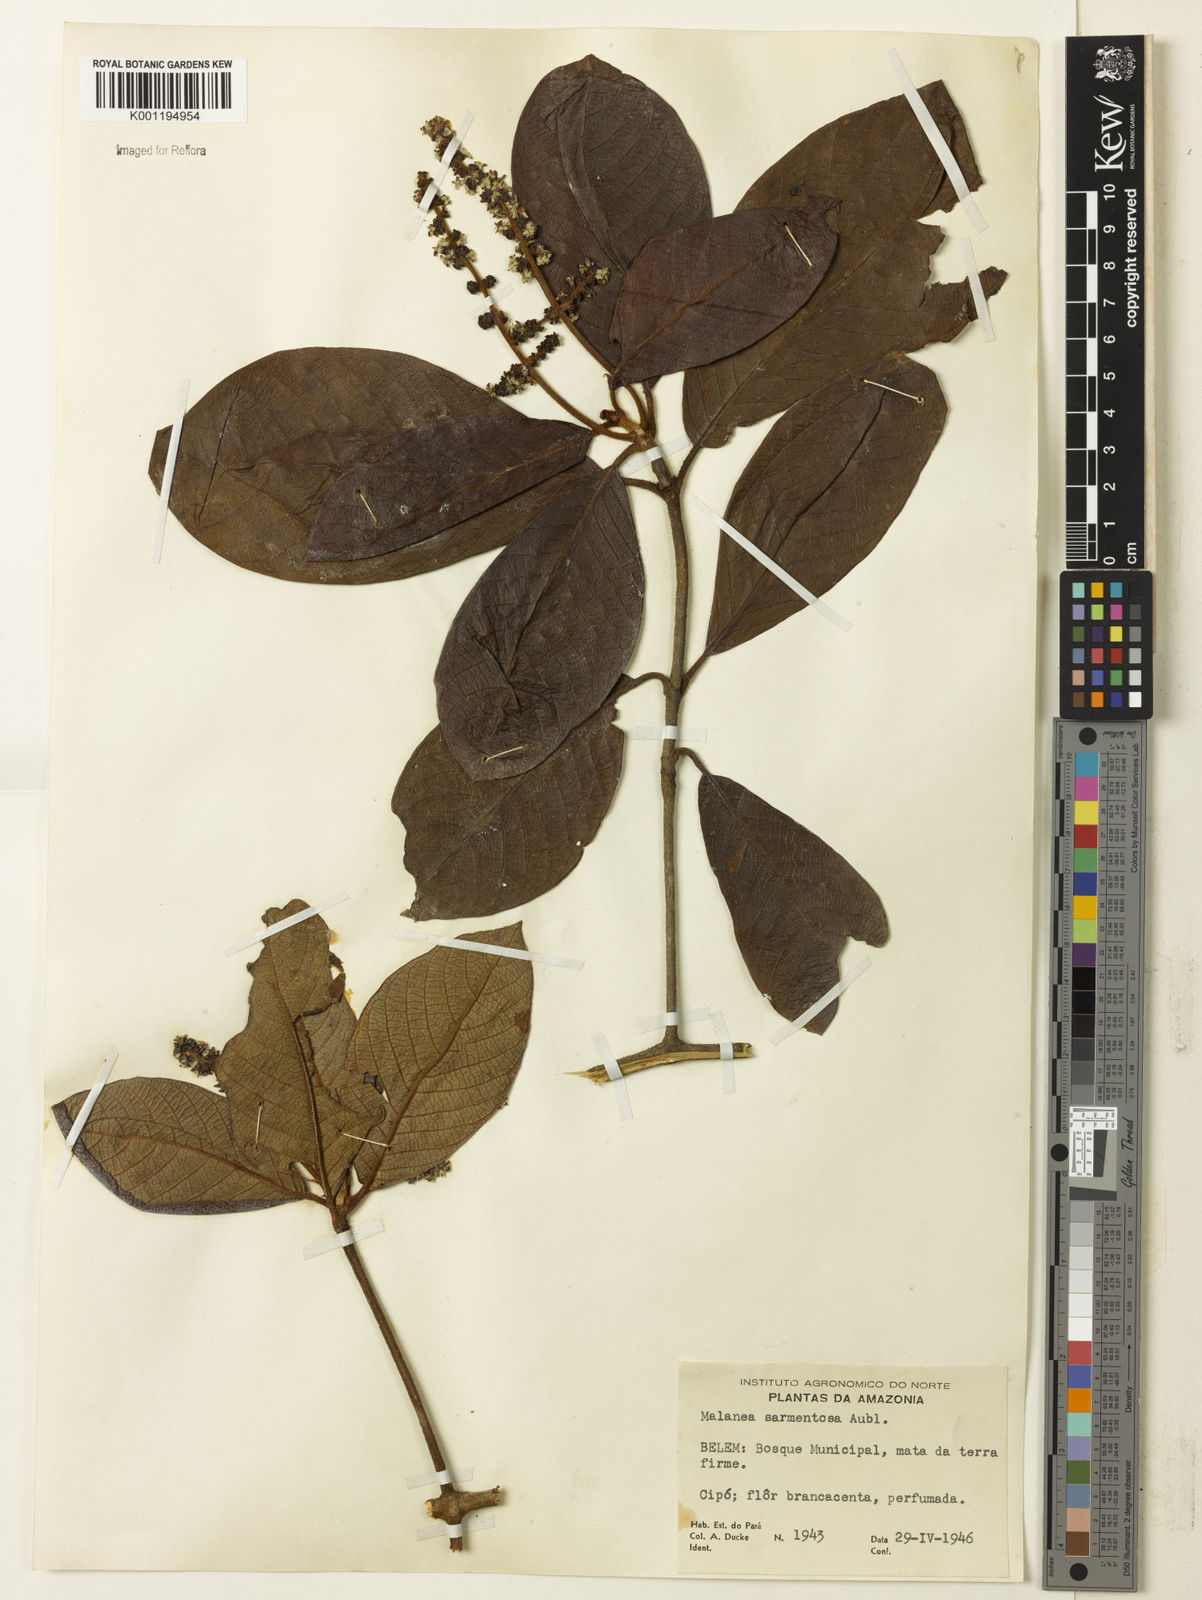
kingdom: Plantae
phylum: Tracheophyta
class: Magnoliopsida
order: Gentianales
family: Rubiaceae
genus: Malanea
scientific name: Malanea sarmentosa
